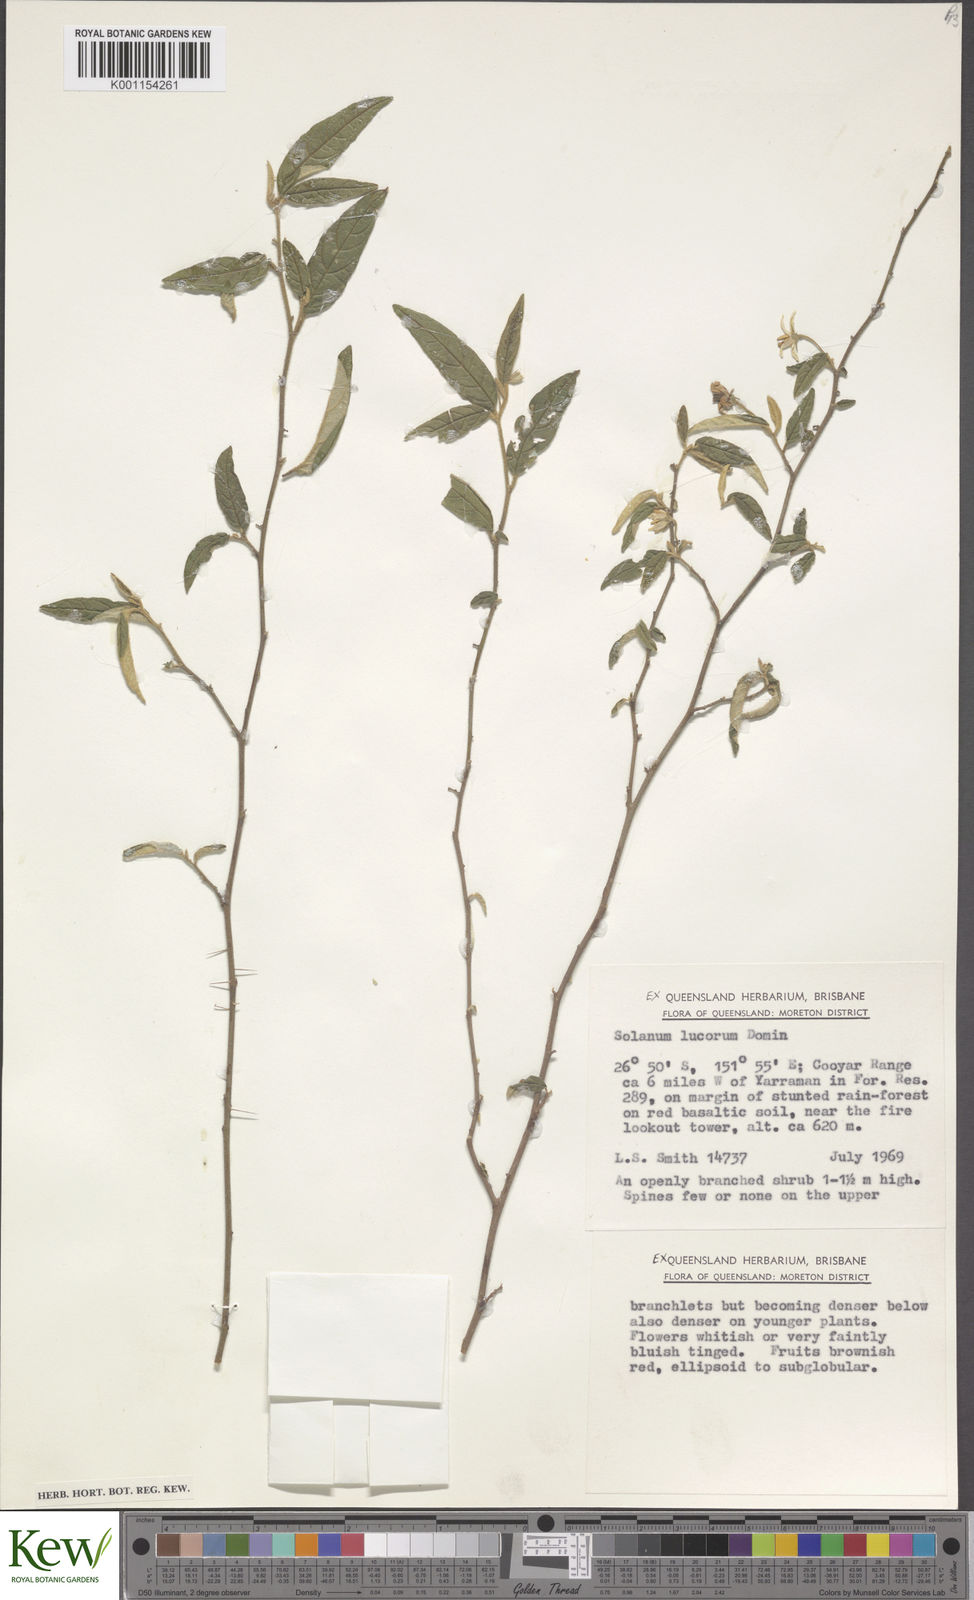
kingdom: Plantae
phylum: Tracheophyta
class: Magnoliopsida
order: Solanales
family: Solanaceae
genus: Solanum
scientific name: Solanum stelligerum
